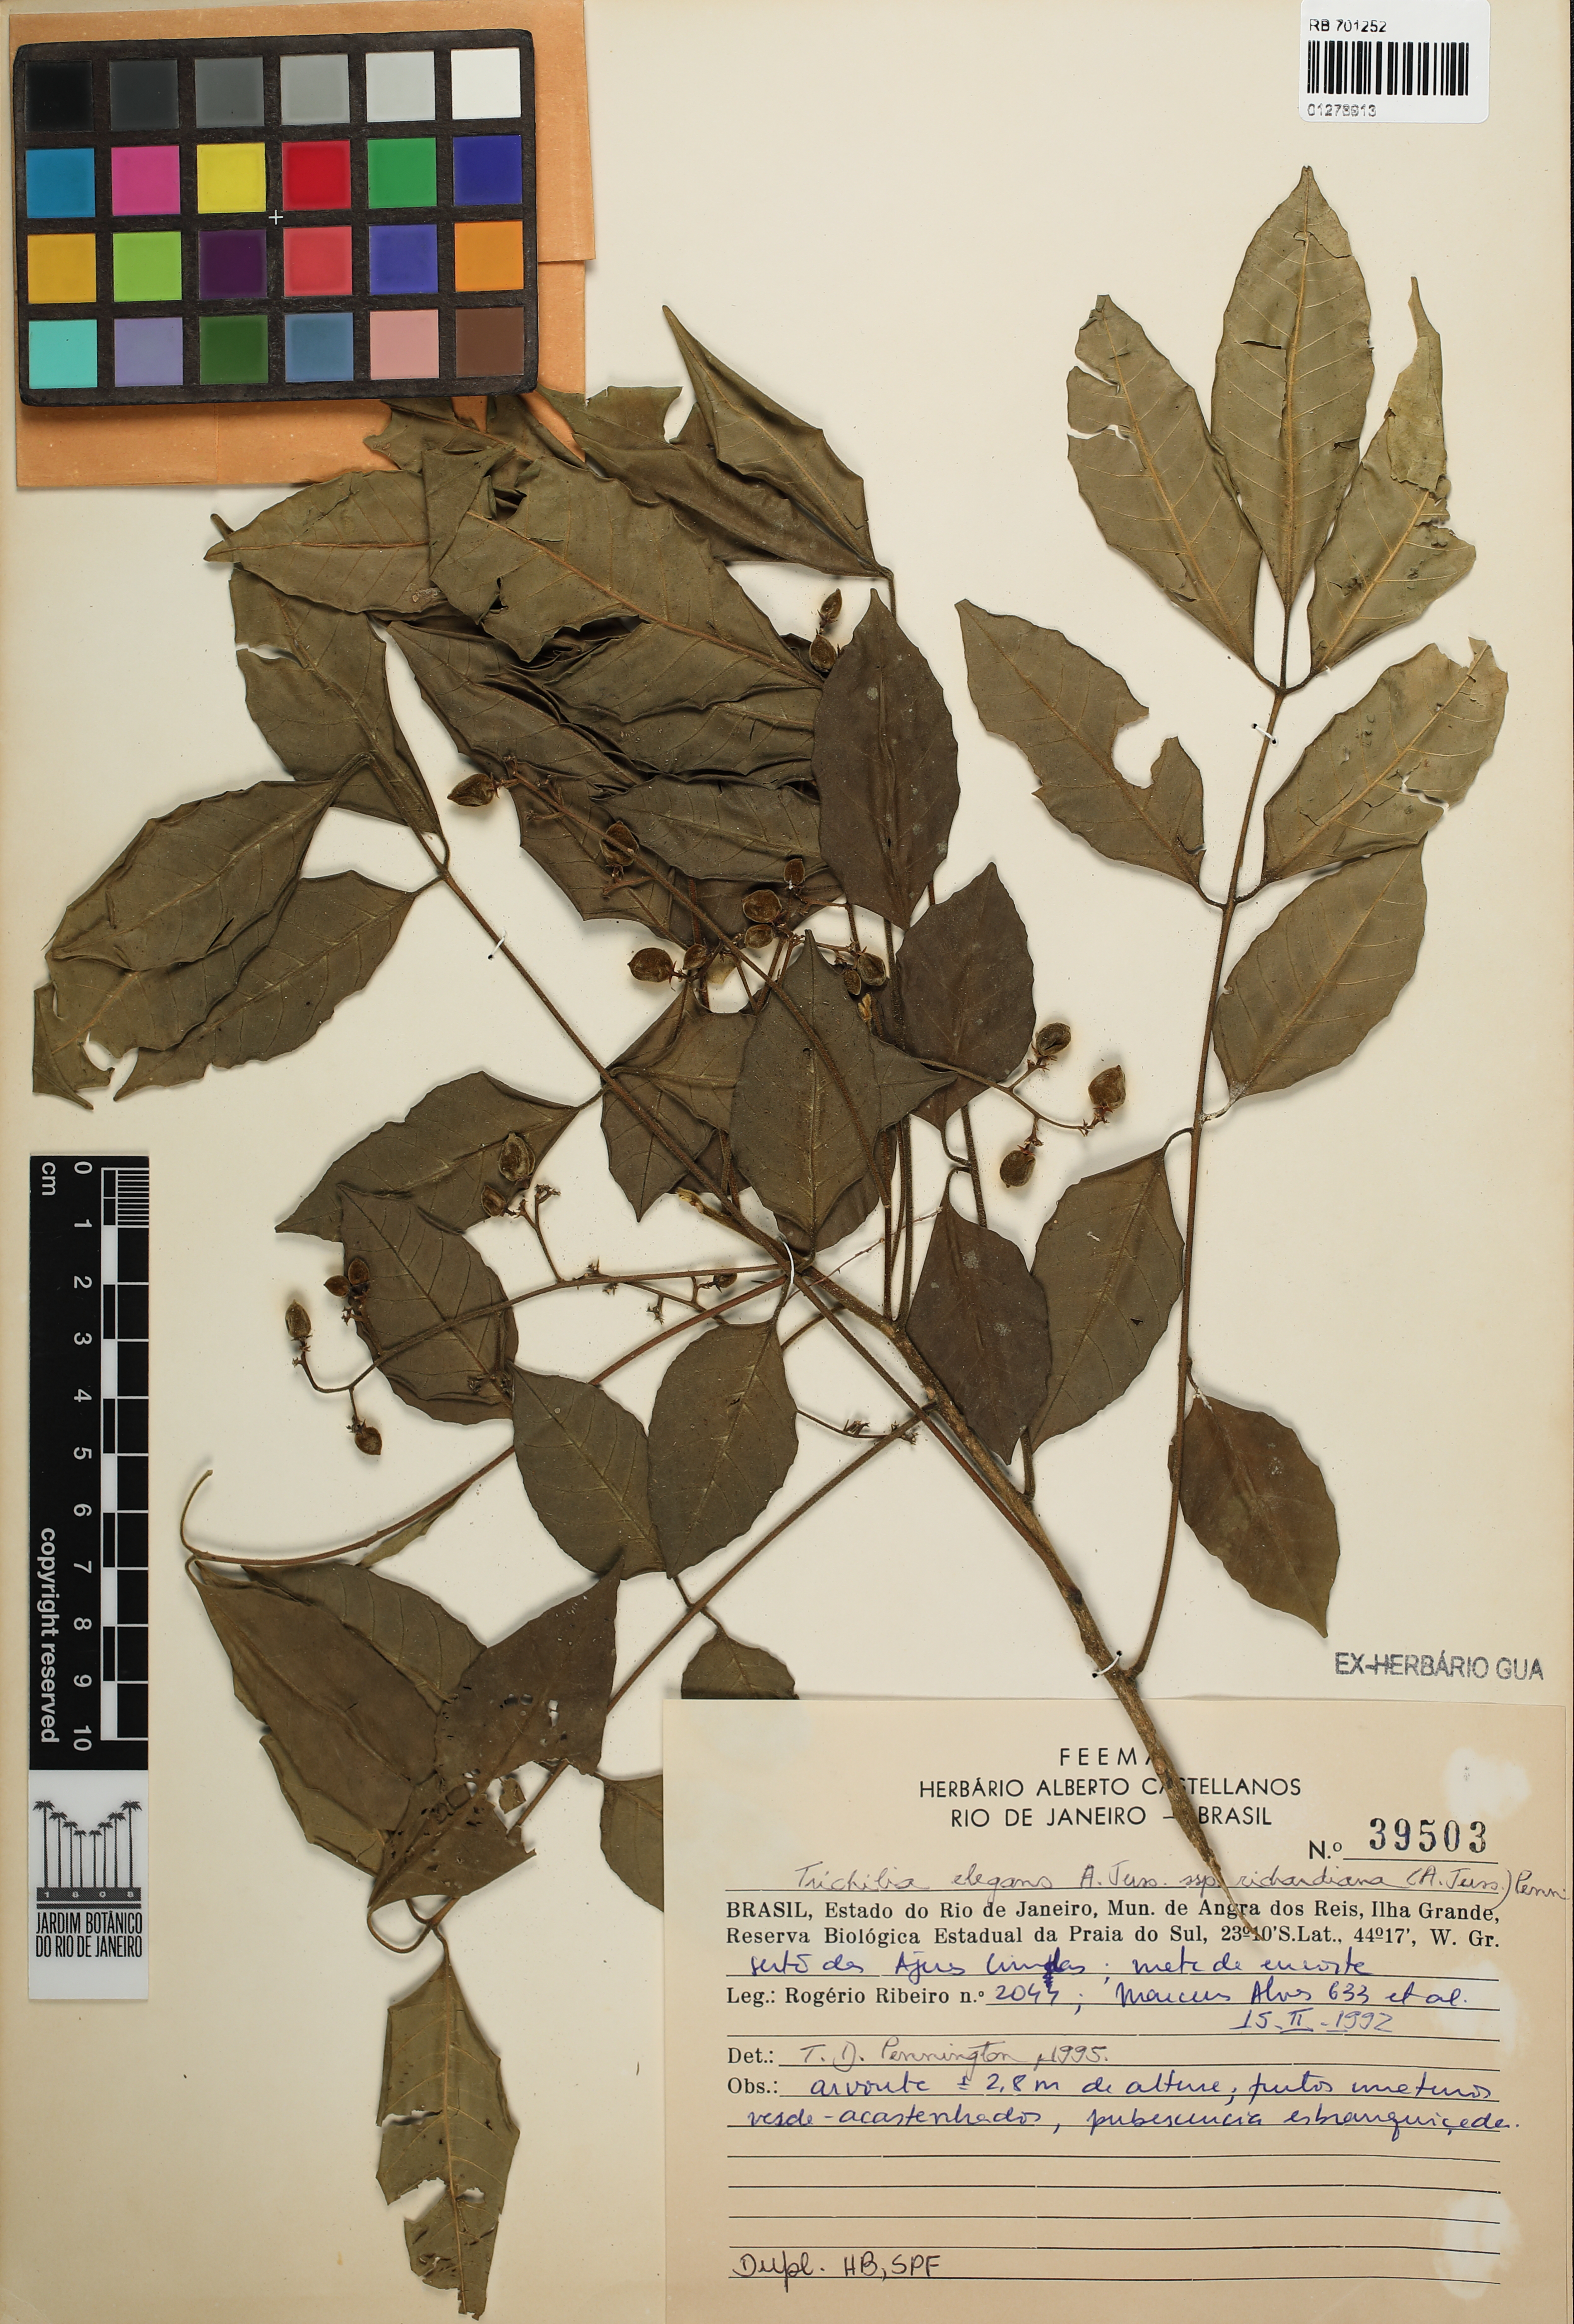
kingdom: Plantae
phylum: Tracheophyta
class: Magnoliopsida
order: Sapindales
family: Meliaceae
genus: Trichilia
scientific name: Trichilia elegans
